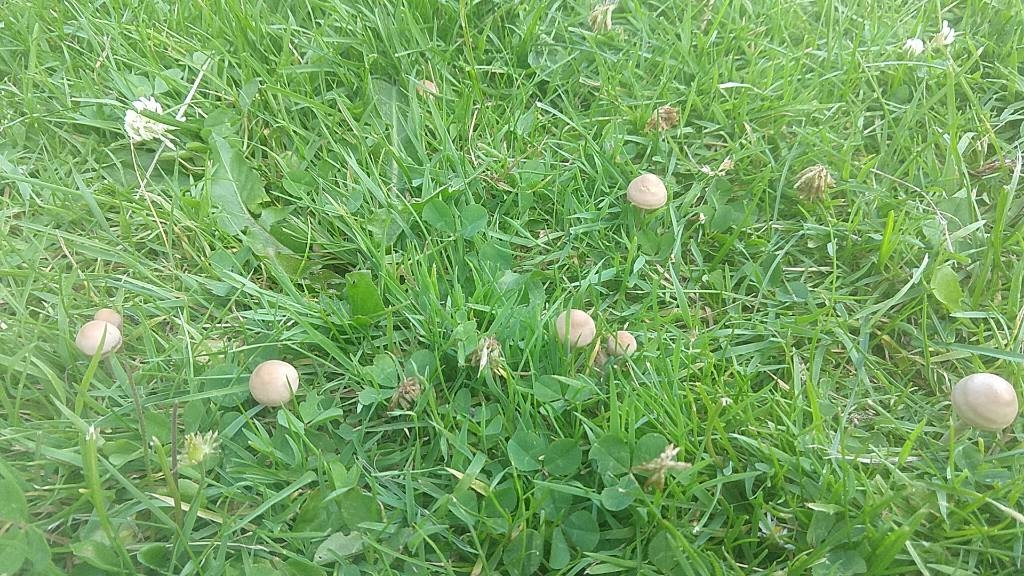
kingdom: Fungi
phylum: Basidiomycota
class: Agaricomycetes
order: Agaricales
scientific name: Agaricales
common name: champignonordenen
